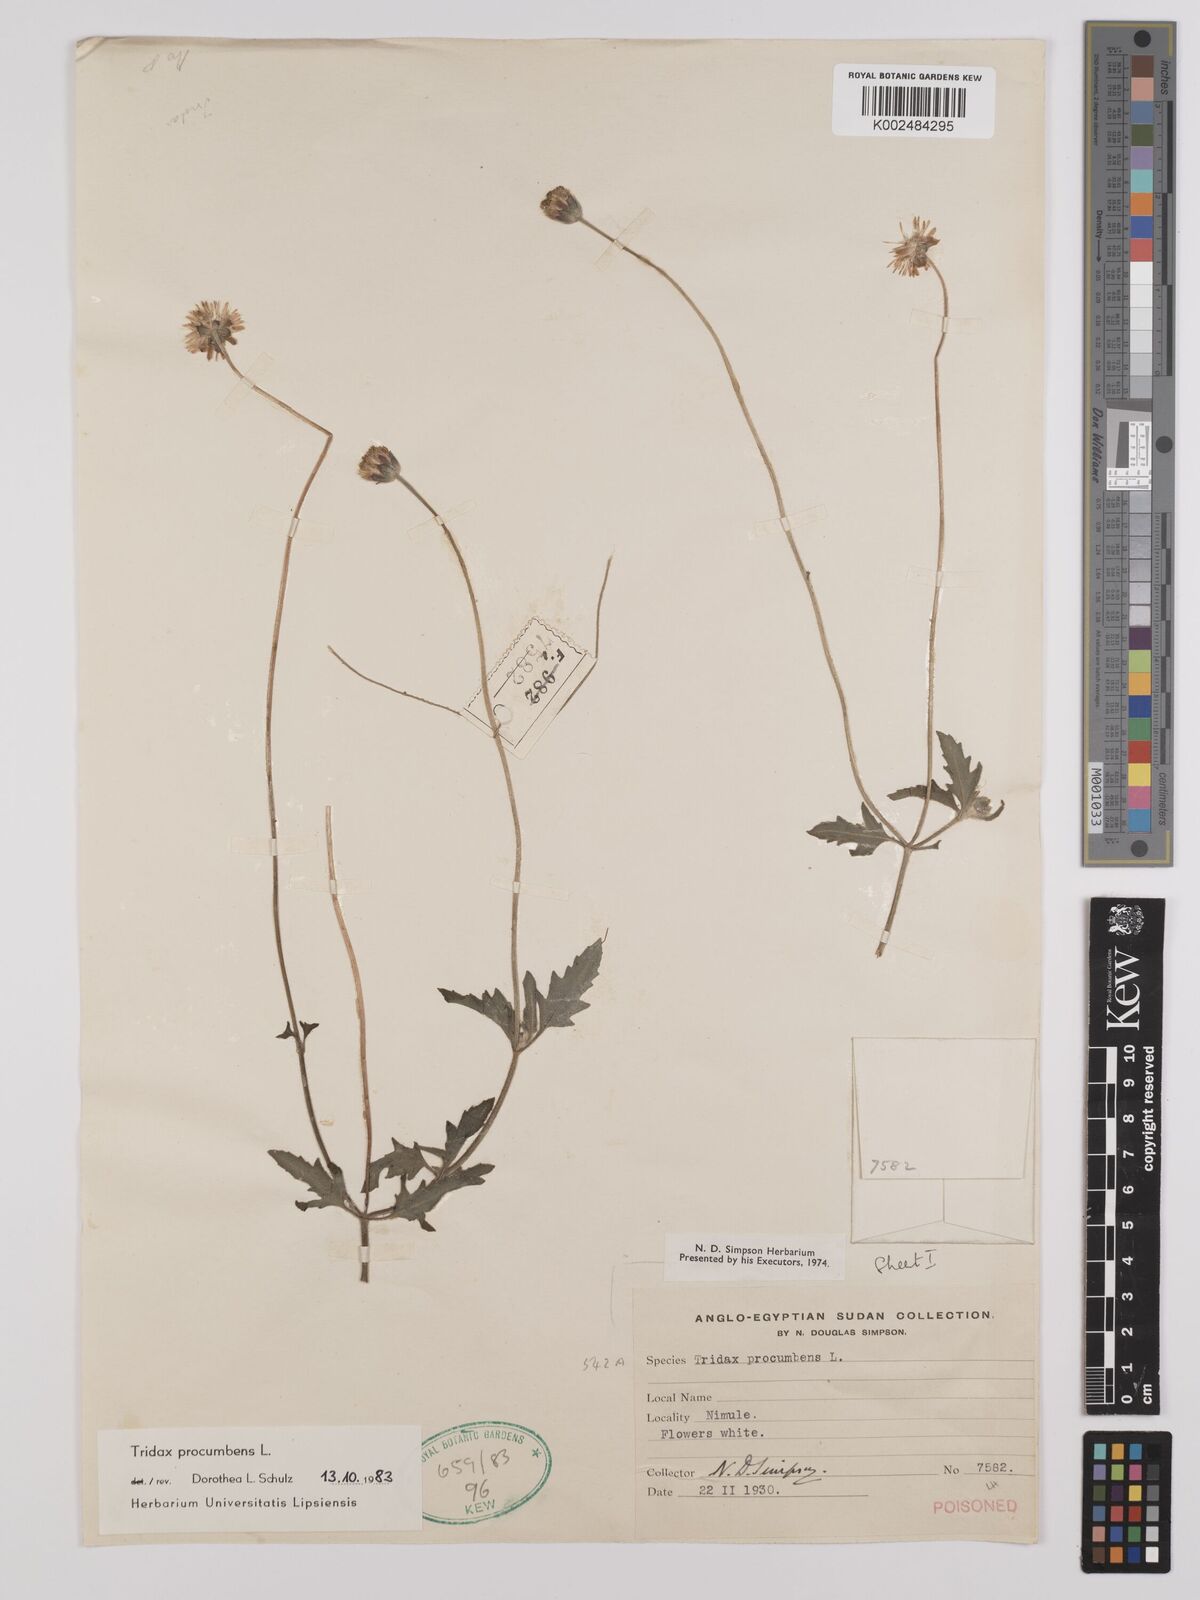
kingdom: Plantae
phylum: Tracheophyta
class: Magnoliopsida
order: Asterales
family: Asteraceae
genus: Tridax
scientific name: Tridax procumbens
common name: Coatbuttons
